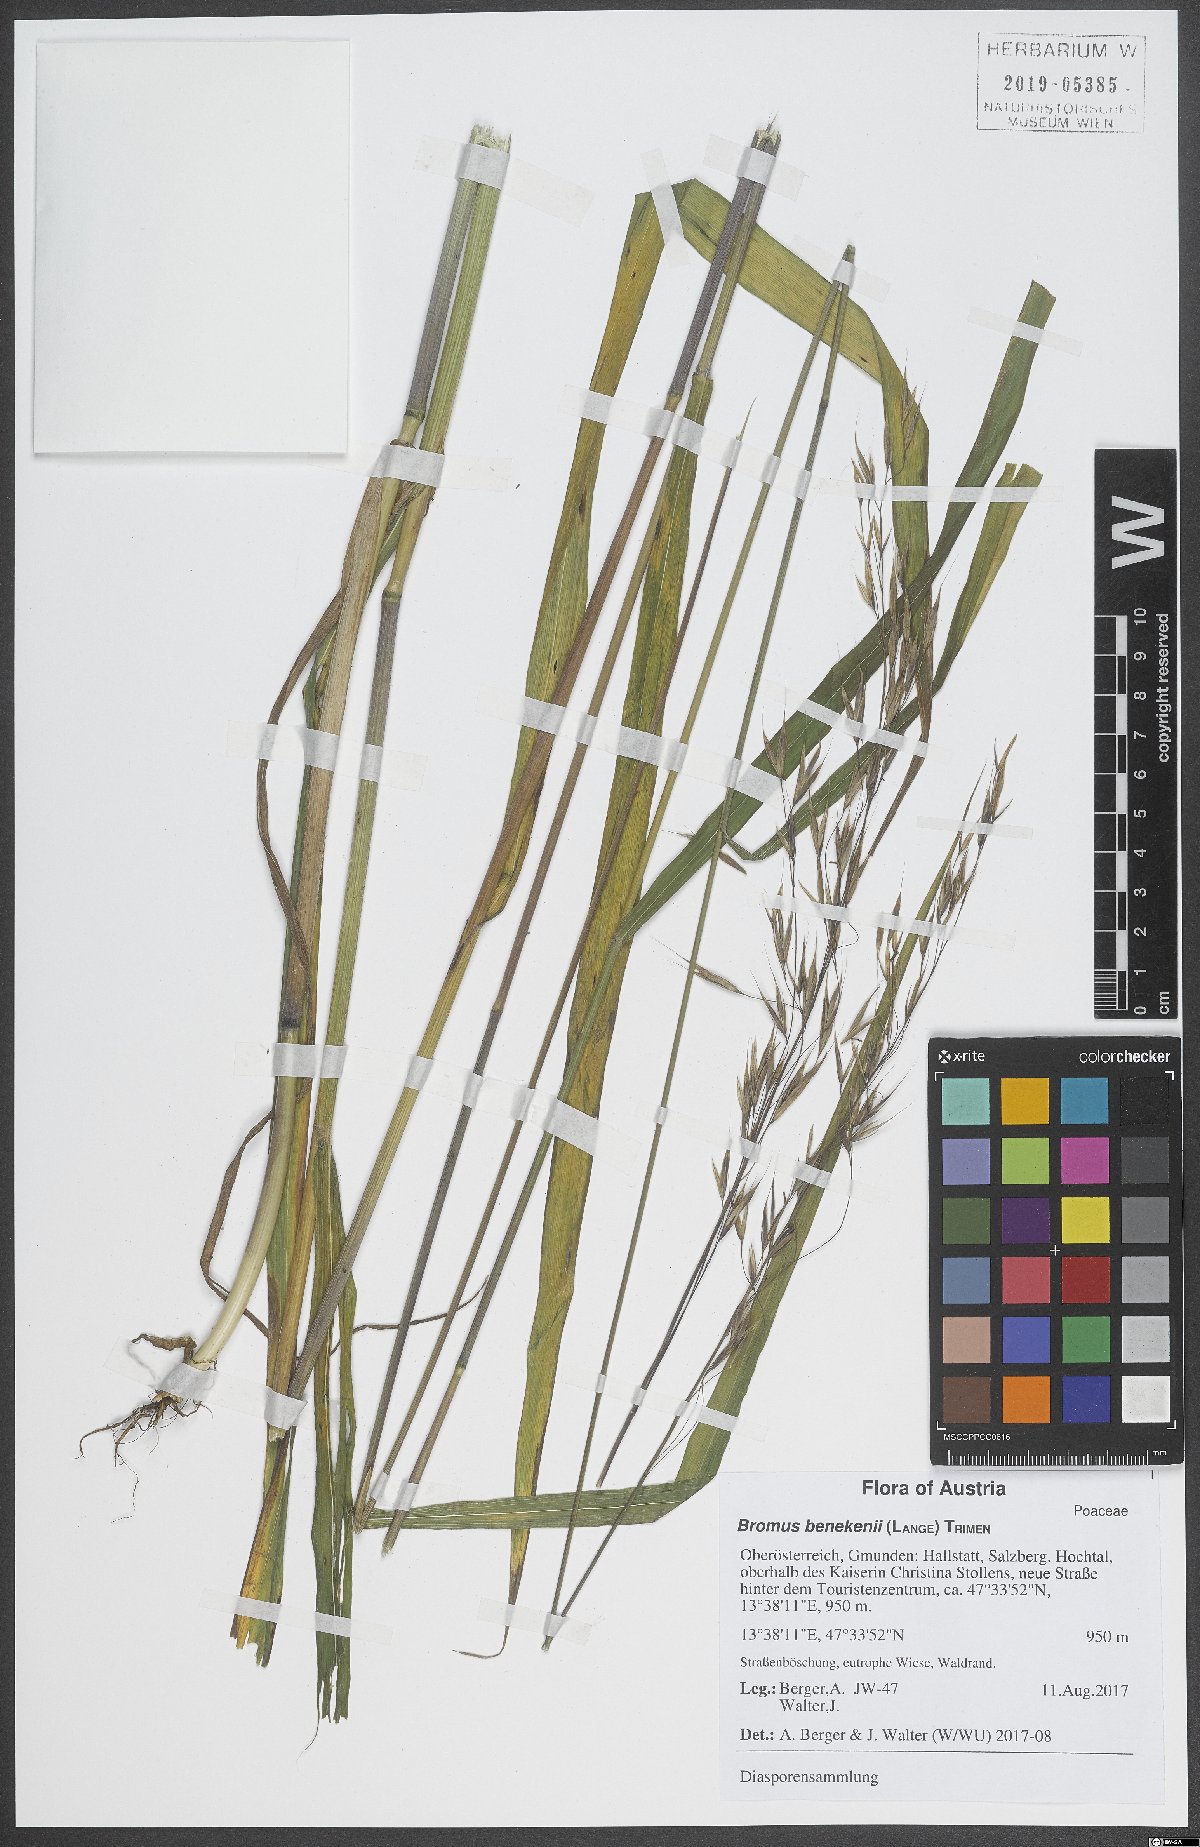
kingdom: Plantae
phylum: Tracheophyta
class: Liliopsida
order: Poales
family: Poaceae
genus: Bromus
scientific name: Bromus benekenii
